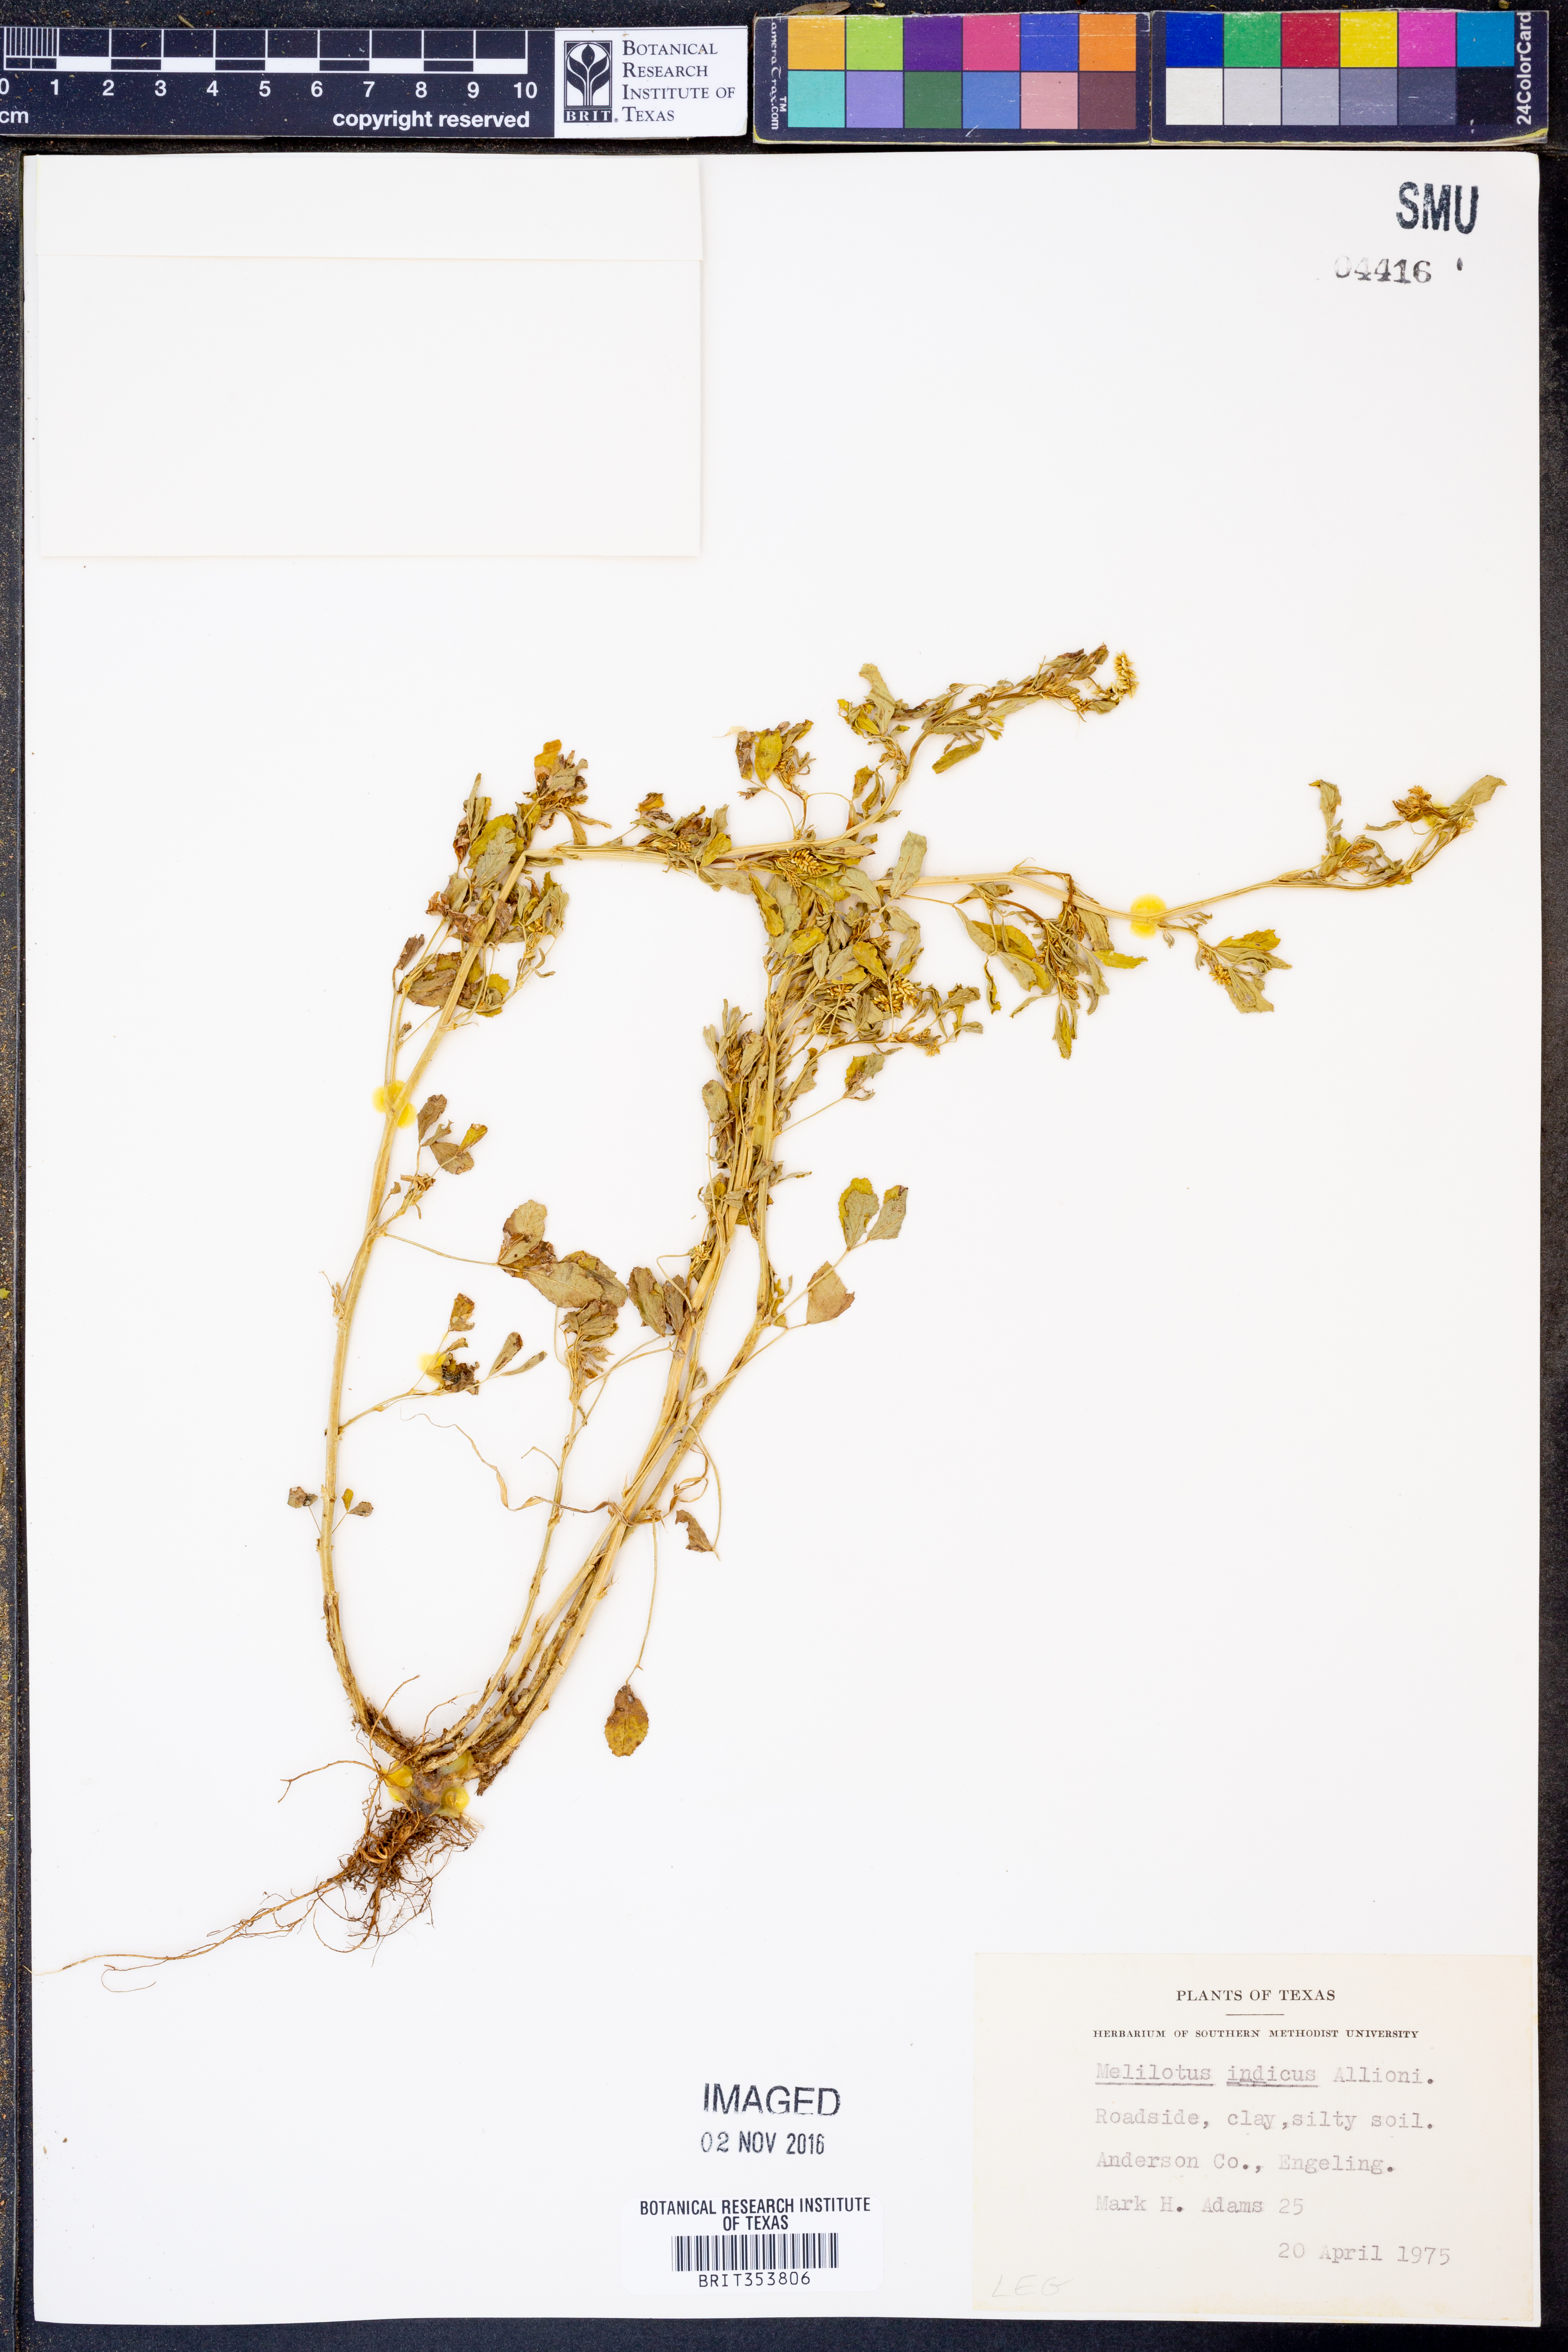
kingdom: Plantae
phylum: Tracheophyta
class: Magnoliopsida
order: Fabales
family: Fabaceae
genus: Melilotus
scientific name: Melilotus indicus
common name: Small melilot
